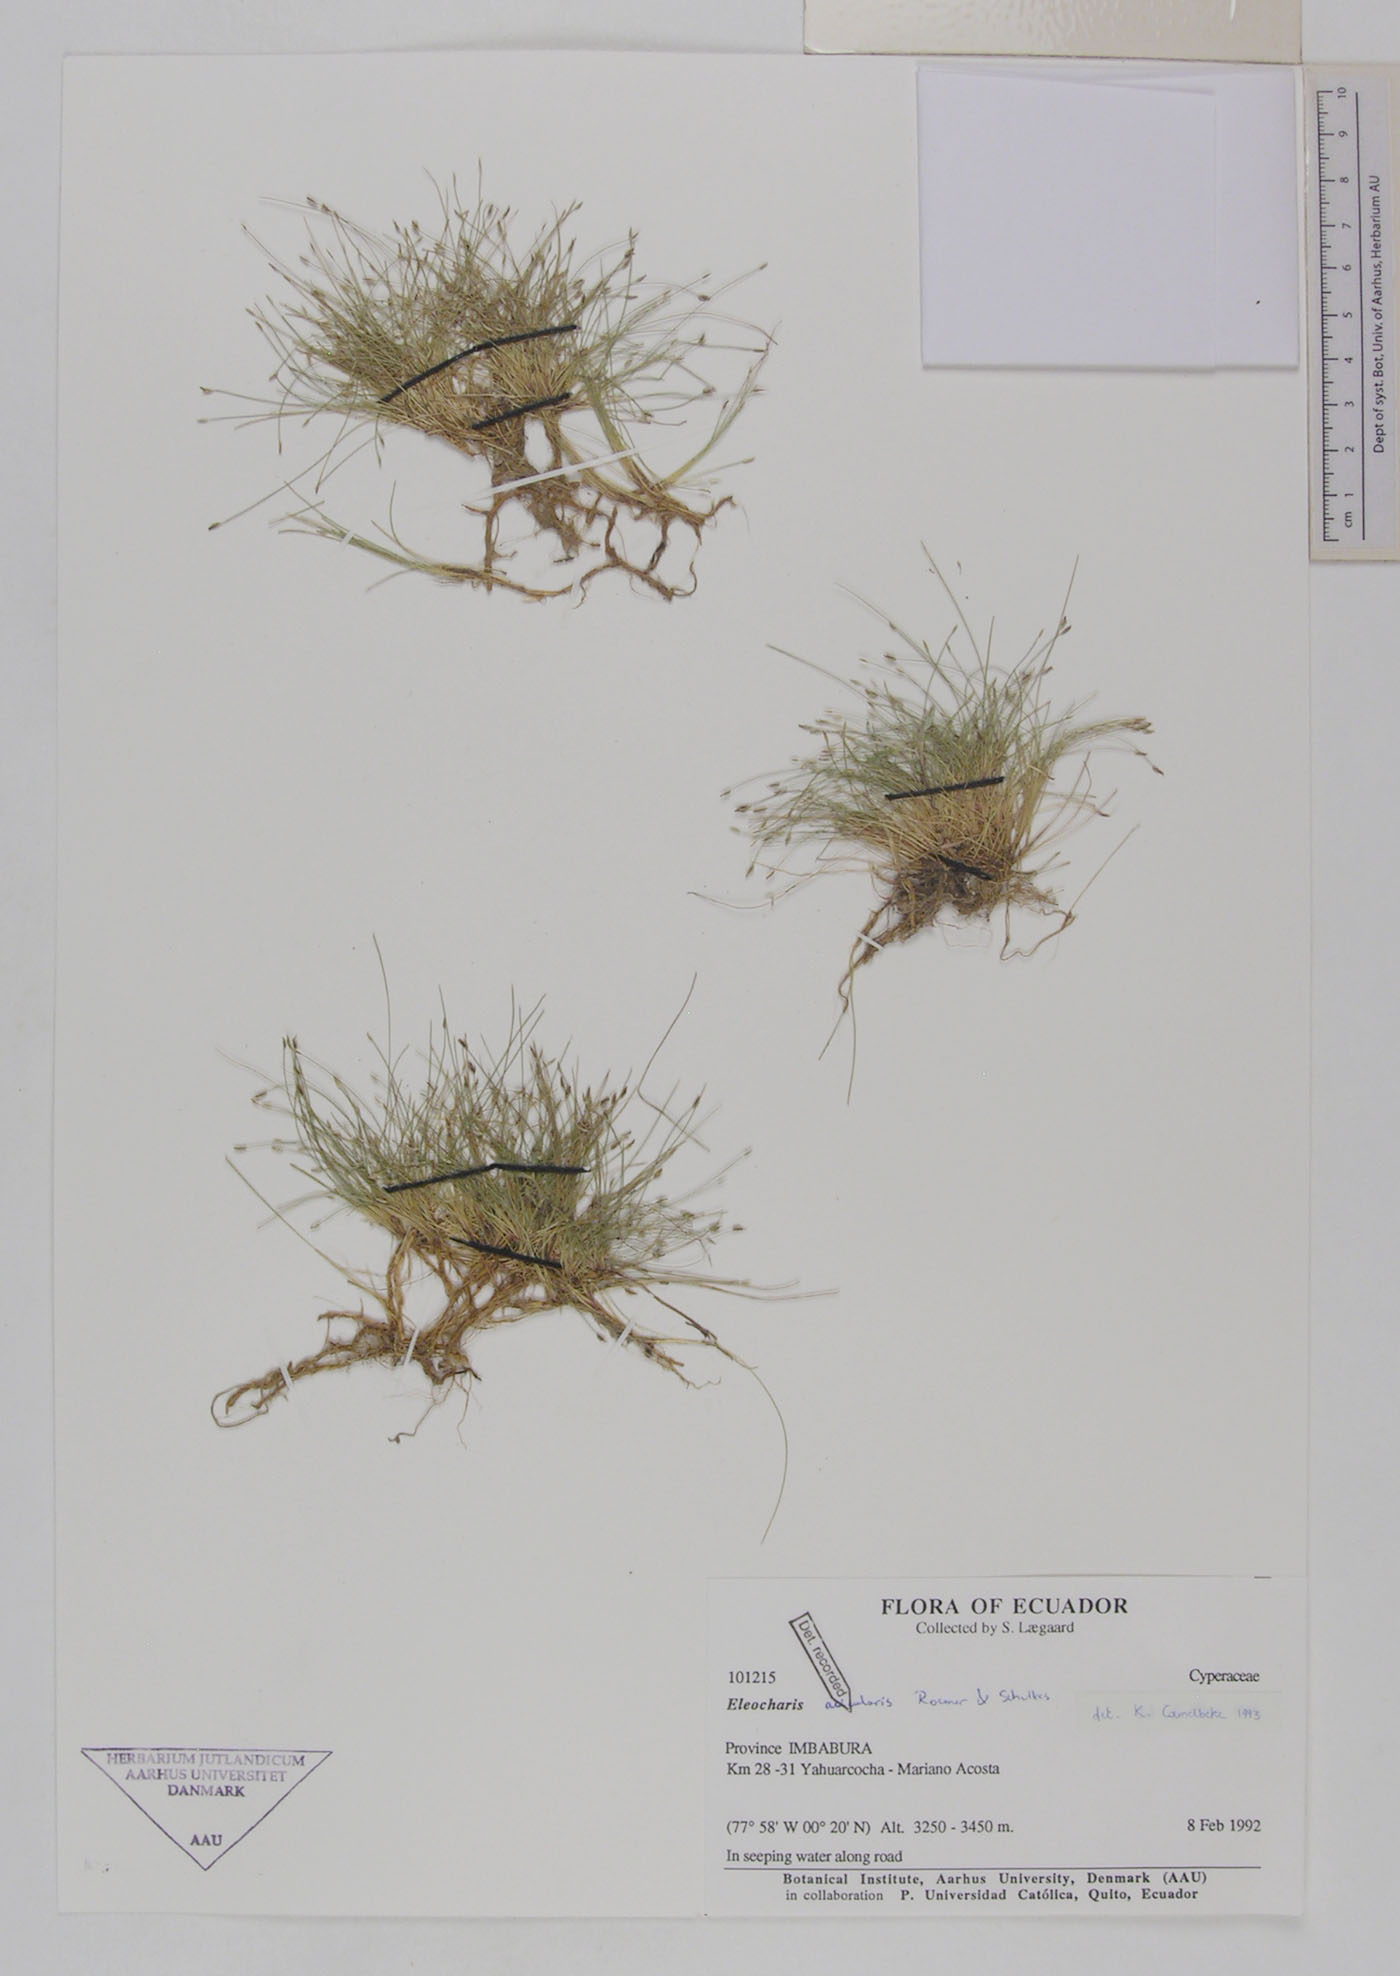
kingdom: Plantae
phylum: Tracheophyta
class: Liliopsida
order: Poales
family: Cyperaceae
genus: Eleocharis
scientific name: Eleocharis acicularis
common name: Needle spike-rush
